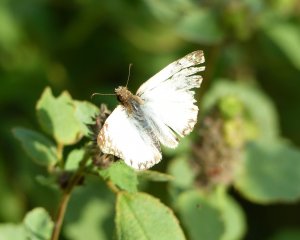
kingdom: Animalia
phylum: Arthropoda
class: Insecta
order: Lepidoptera
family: Hesperiidae
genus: Heliopetes
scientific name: Heliopetes macaira
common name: Turk's-cap White-Skipper
